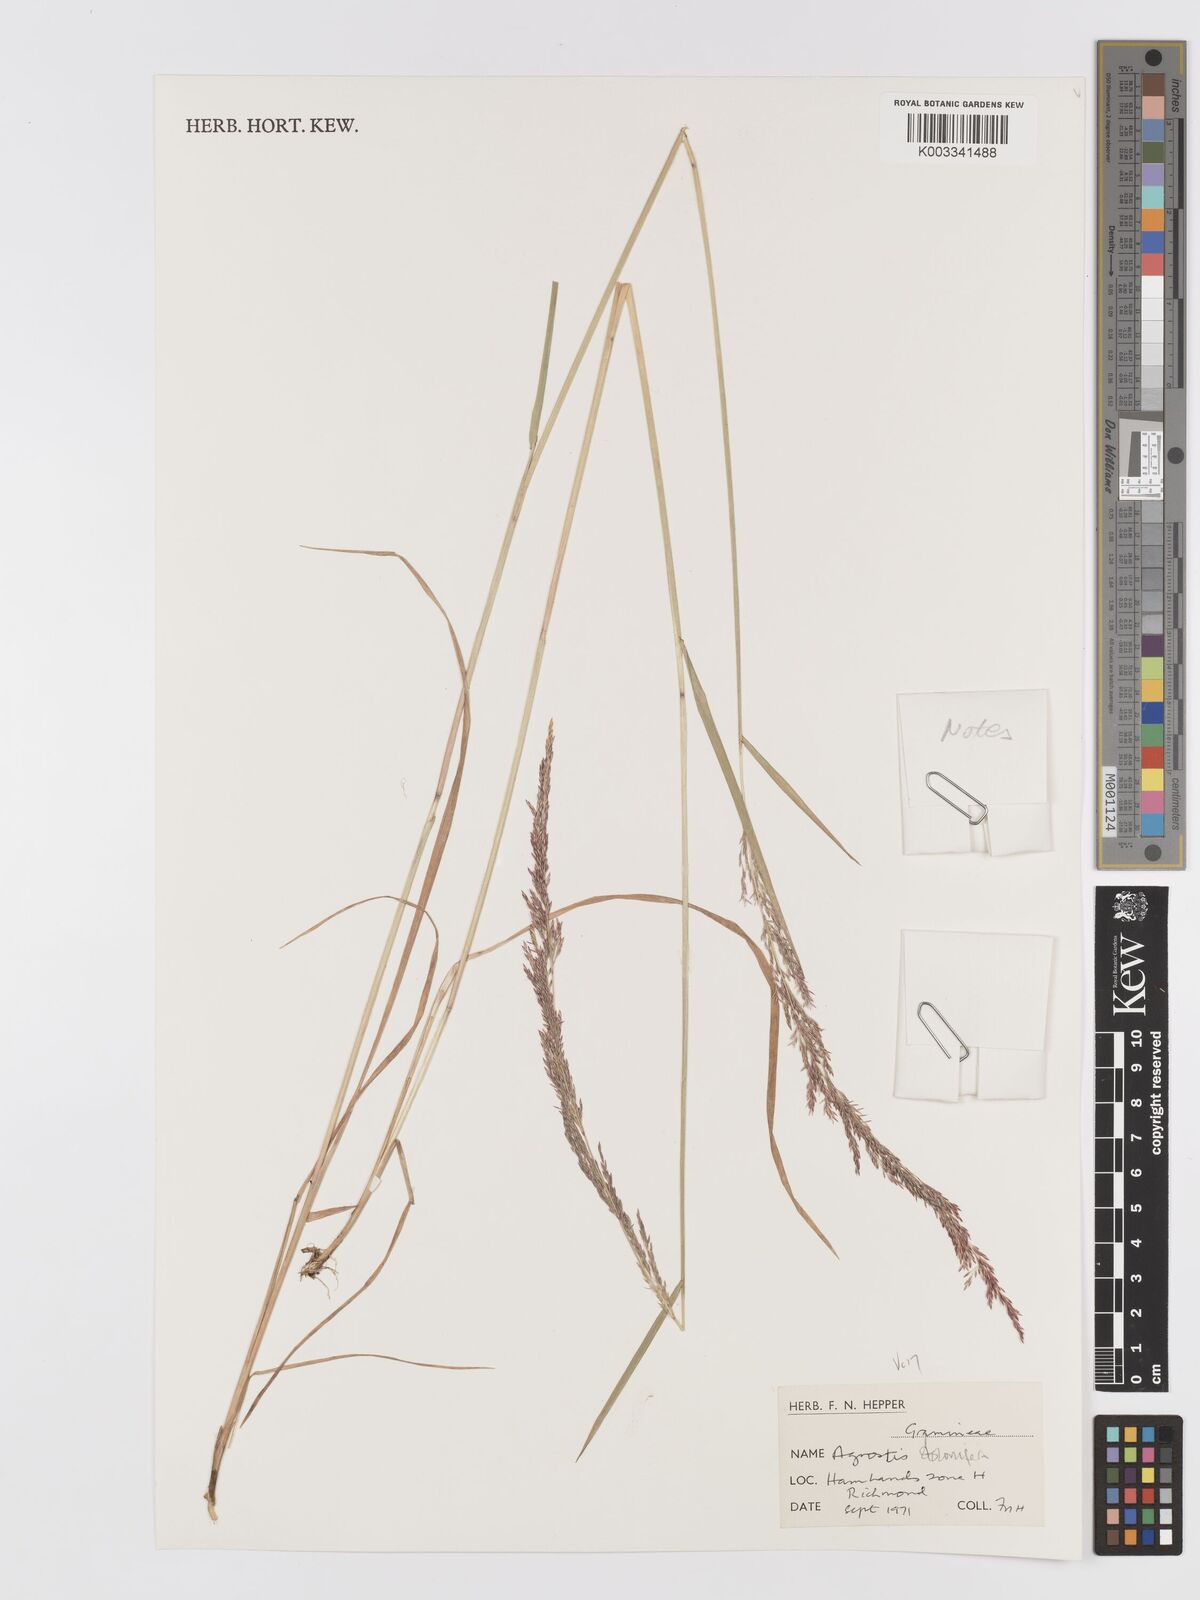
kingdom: Plantae
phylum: Tracheophyta
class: Liliopsida
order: Poales
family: Poaceae
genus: Agrostis
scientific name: Agrostis stolonifera
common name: Creeping bentgrass
